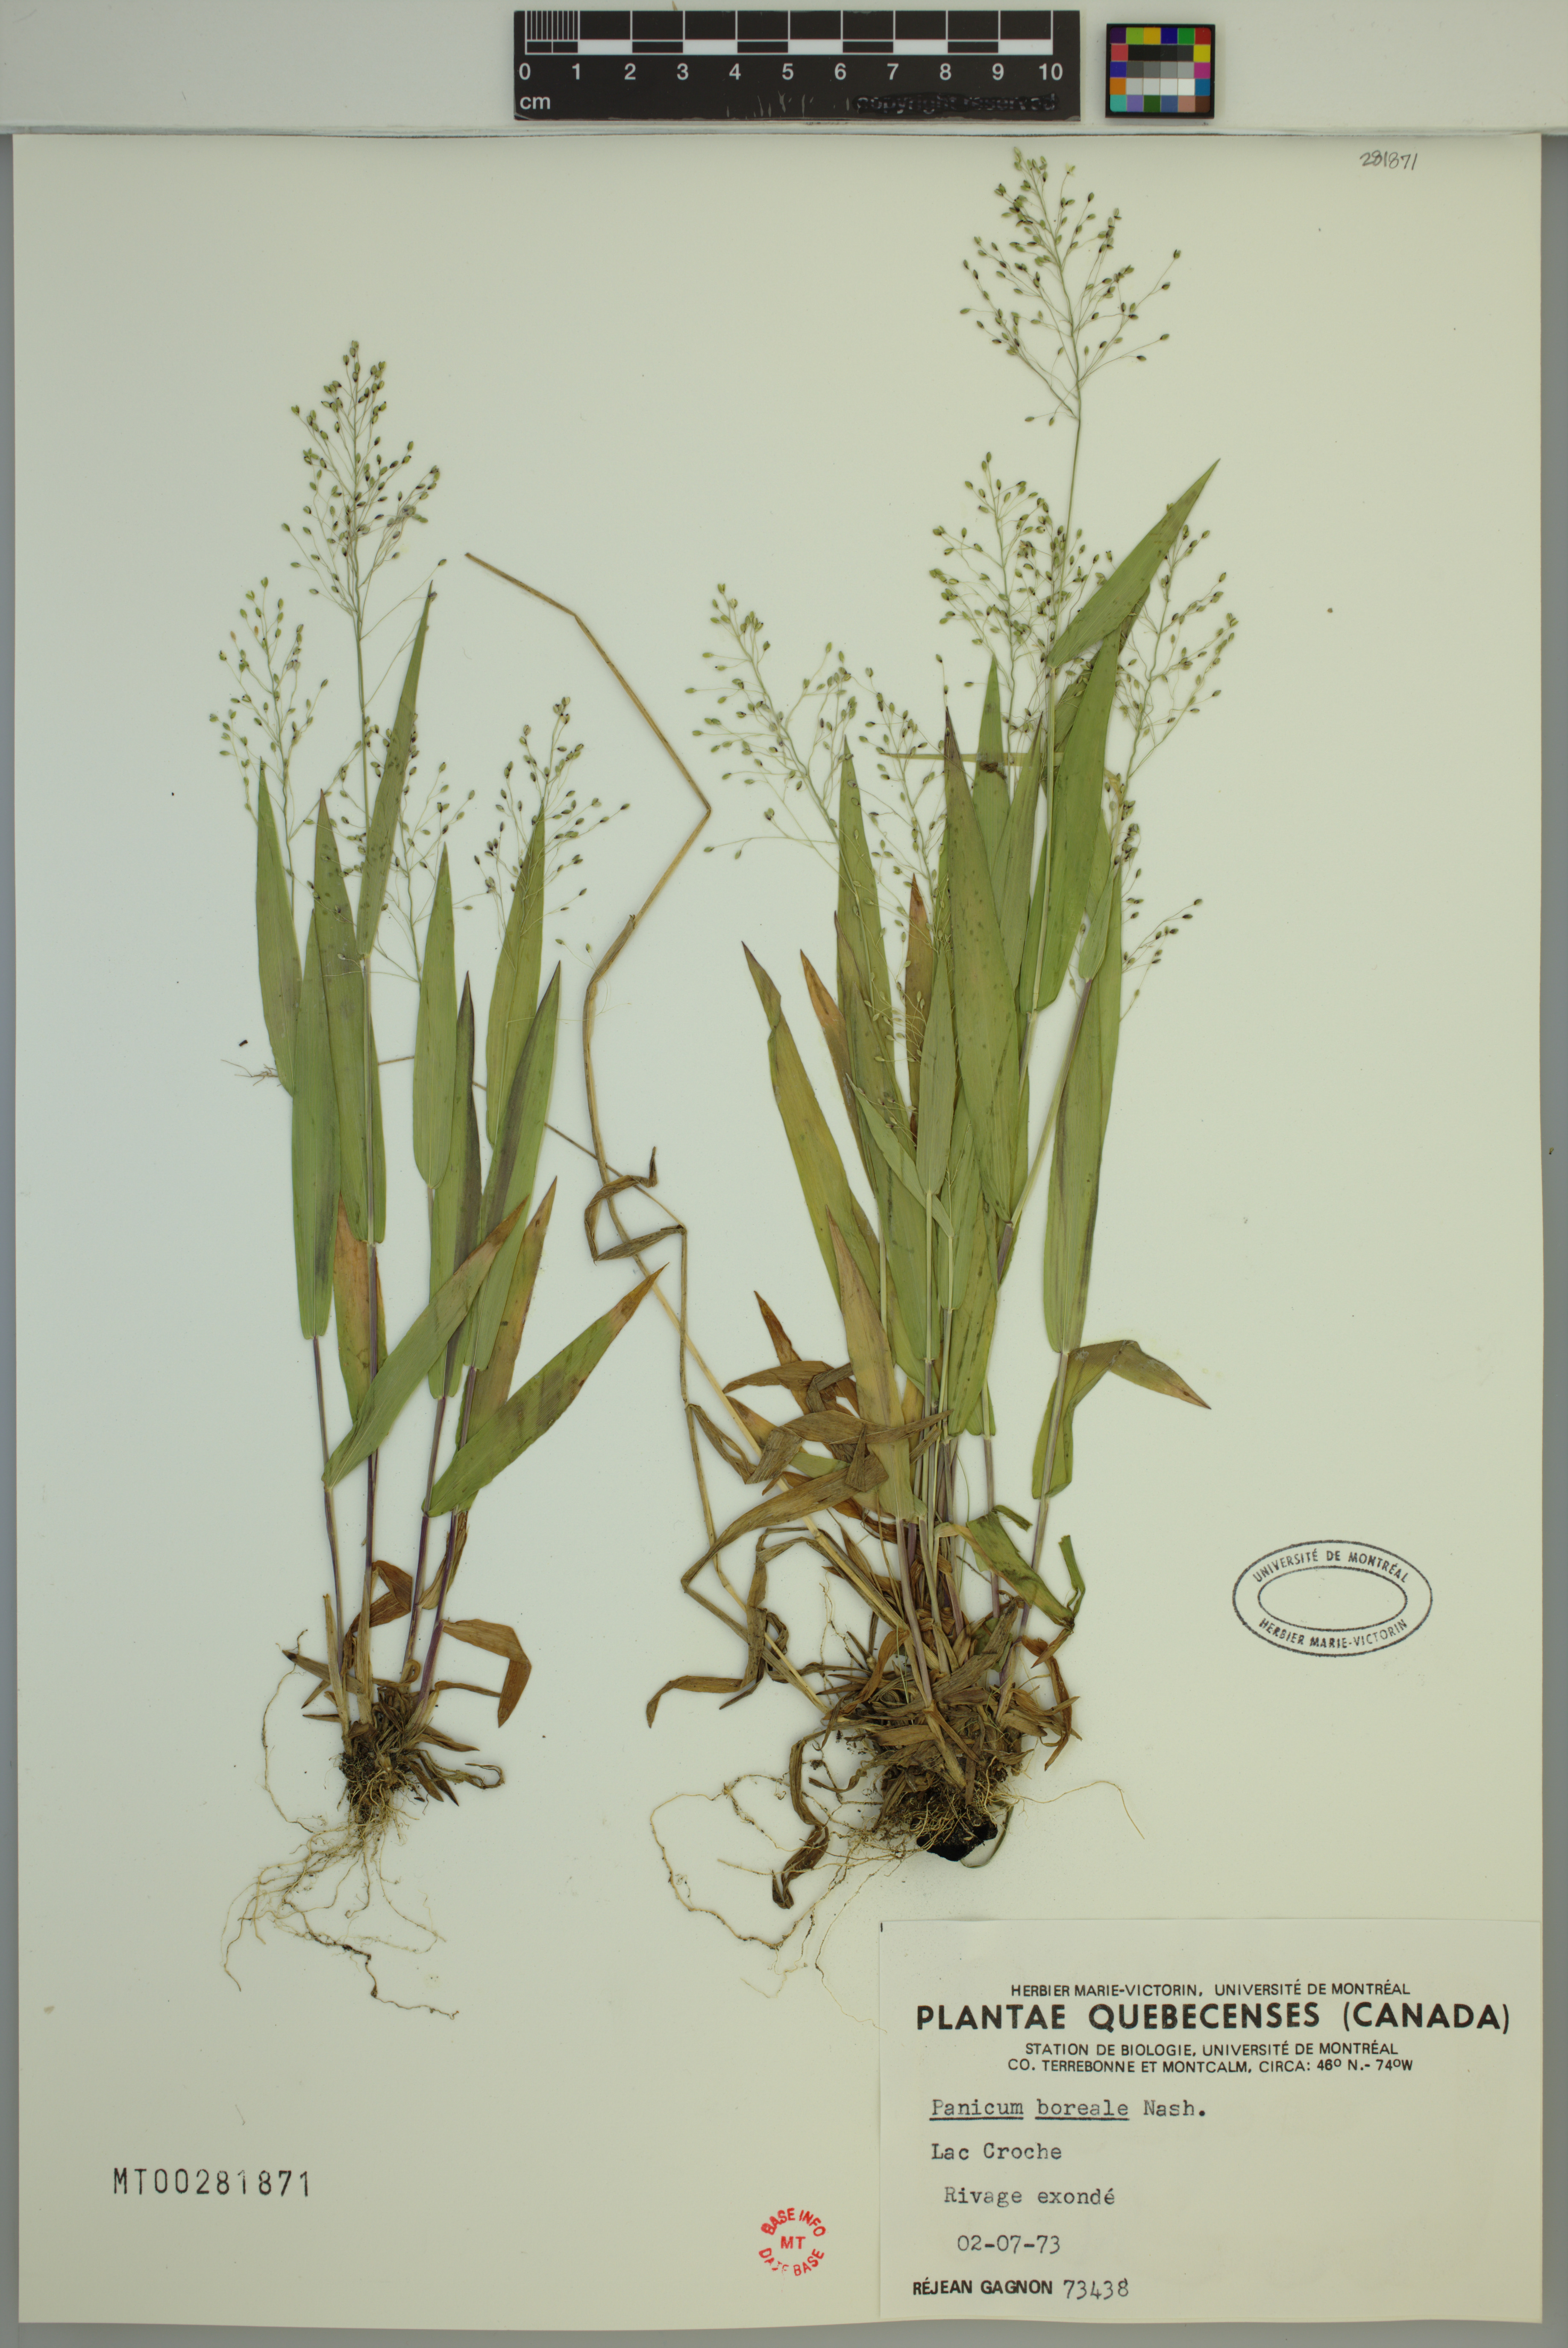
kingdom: Plantae
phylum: Tracheophyta
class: Liliopsida
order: Poales
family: Poaceae
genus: Dichanthelium
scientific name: Dichanthelium boreale
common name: Northern panicgrass
